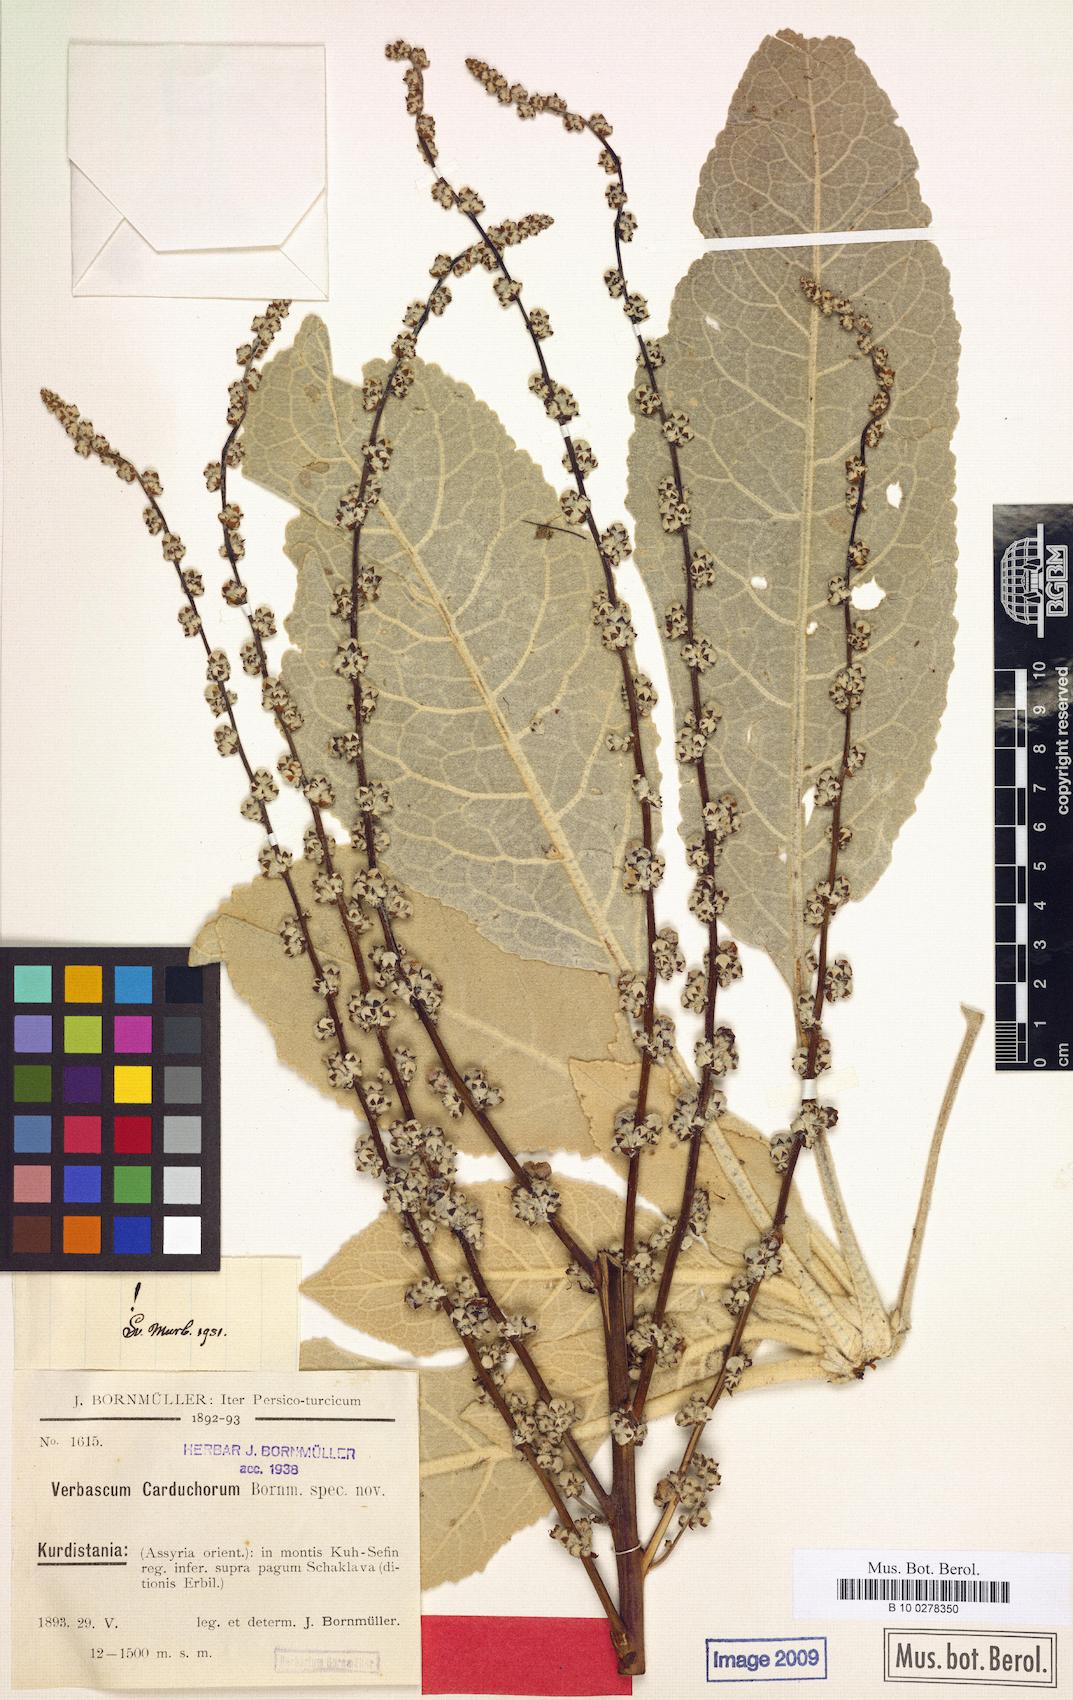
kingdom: Plantae
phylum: Tracheophyta
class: Magnoliopsida
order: Lamiales
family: Scrophulariaceae
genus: Verbascum
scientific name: Verbascum carduchorum
